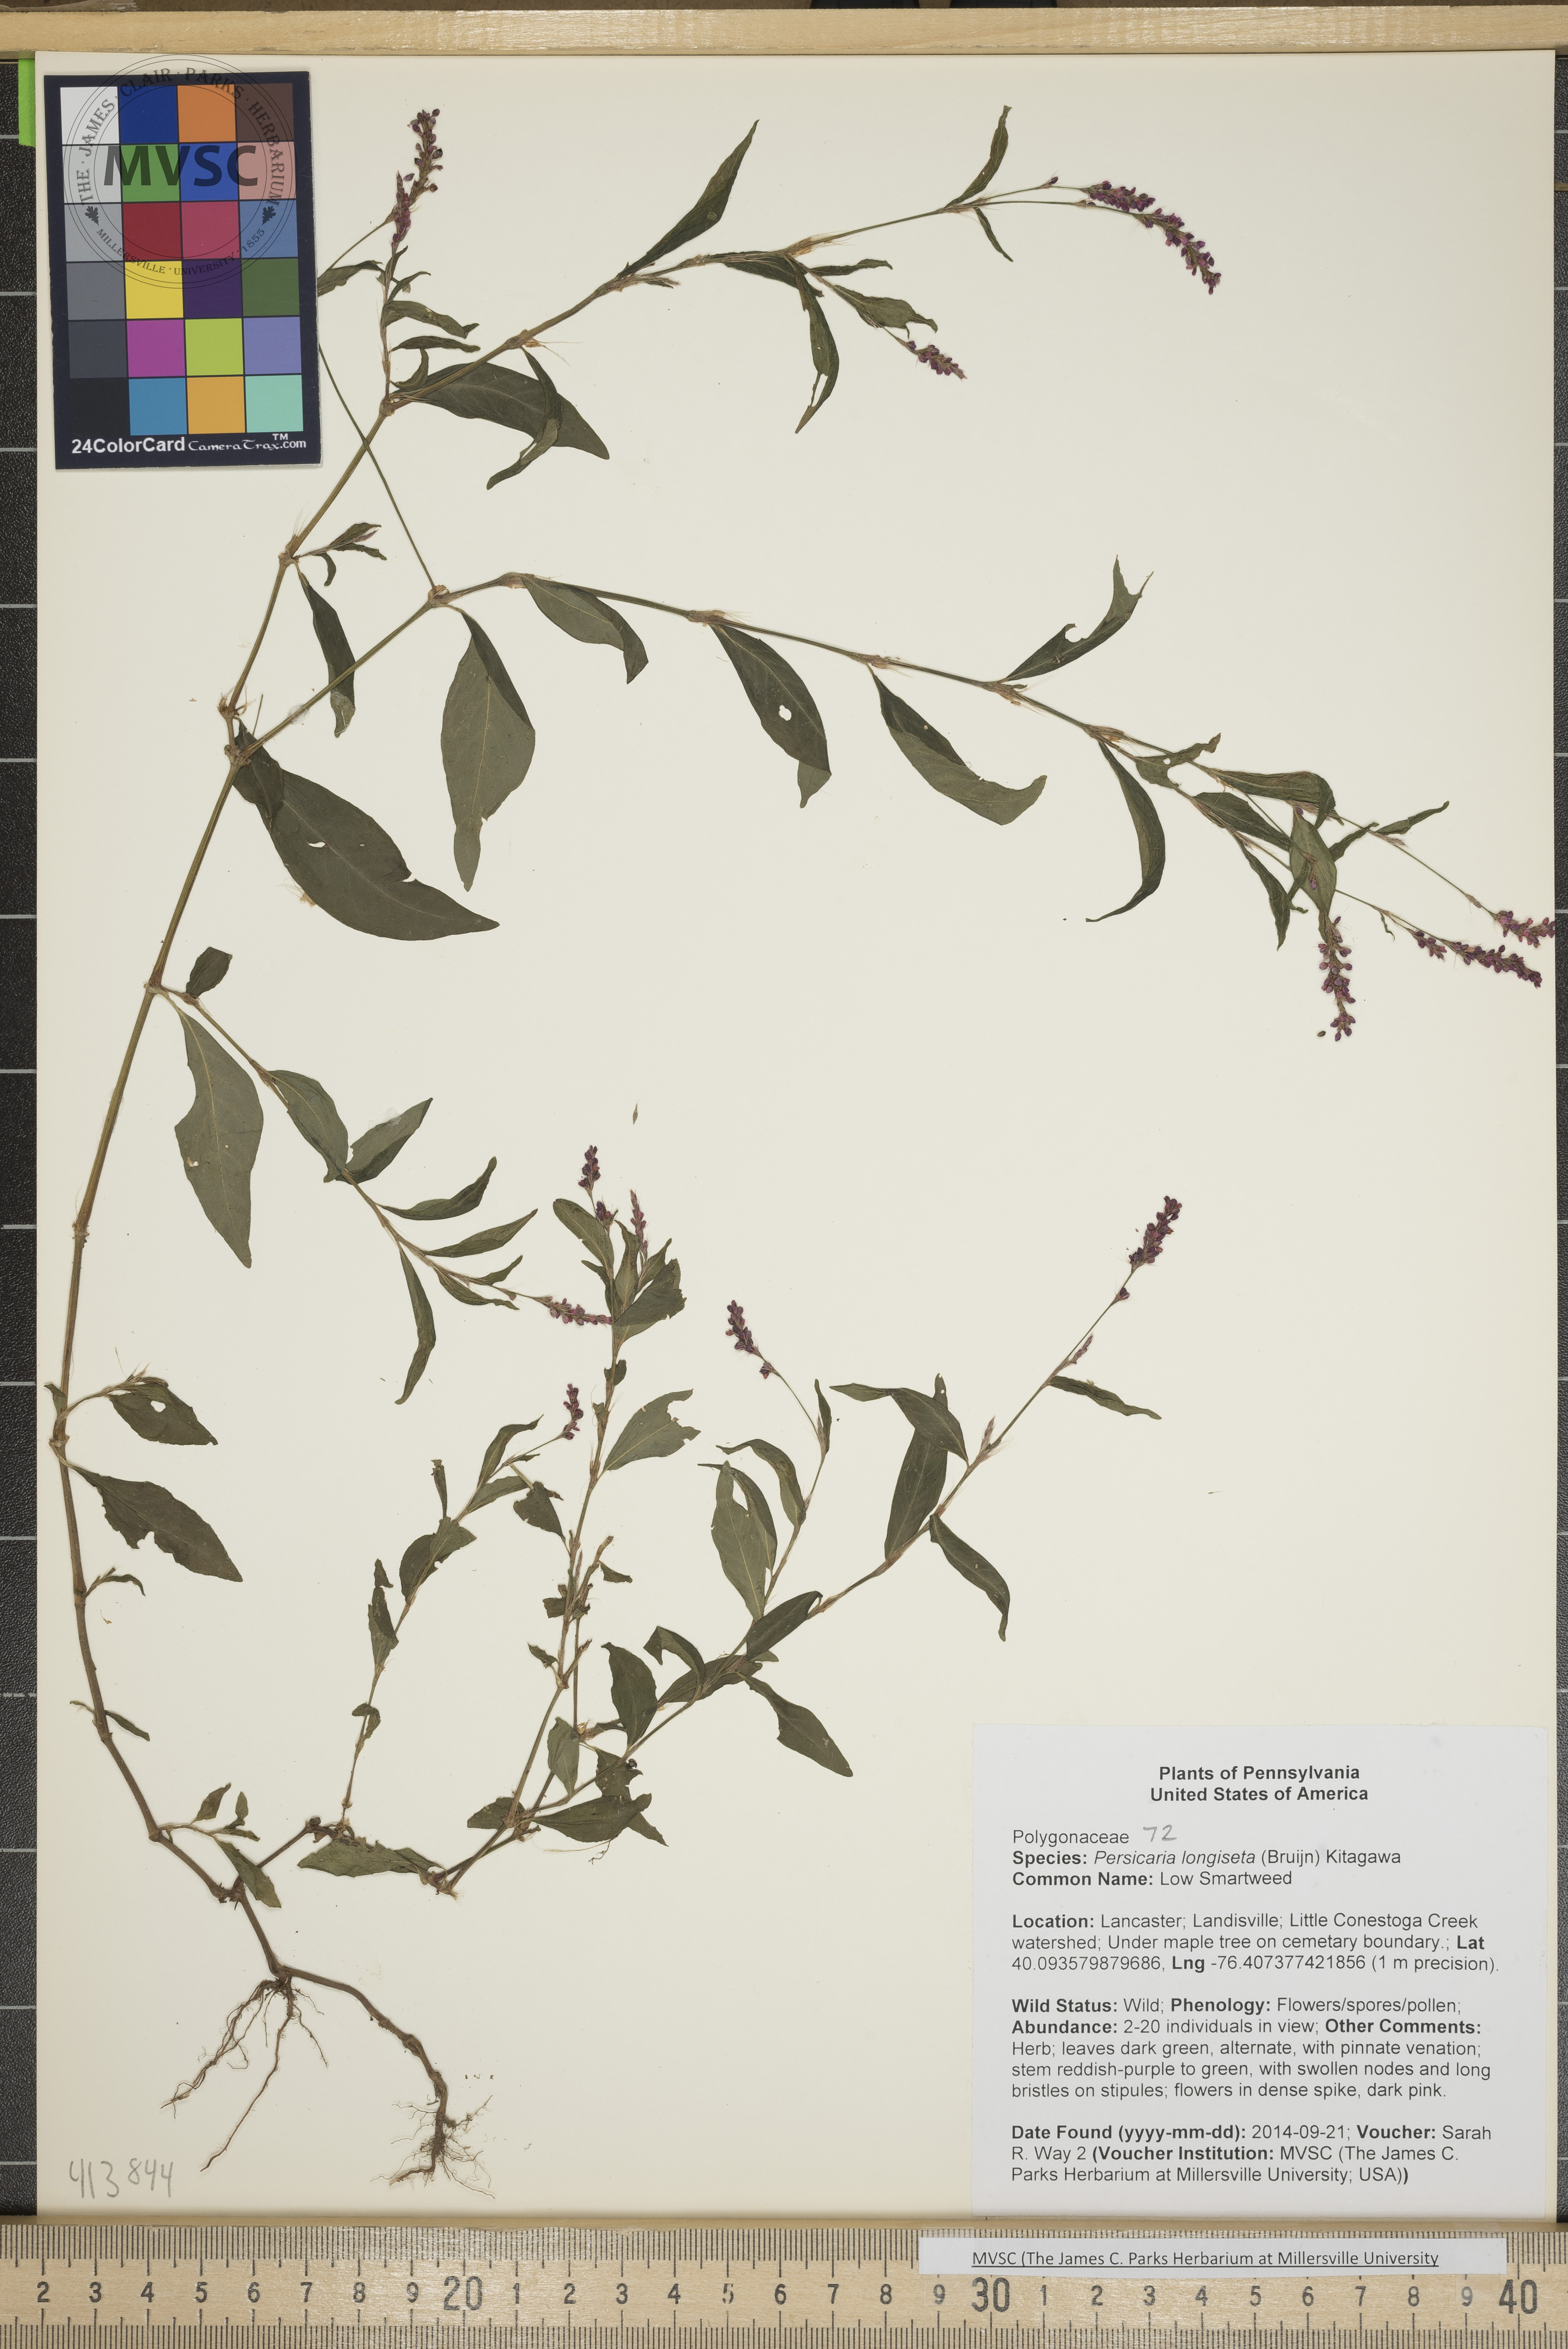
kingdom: Plantae
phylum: Tracheophyta
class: Magnoliopsida
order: Caryophyllales
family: Polygonaceae
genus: Persicaria
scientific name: Persicaria longiseta
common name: Low Smartweed
